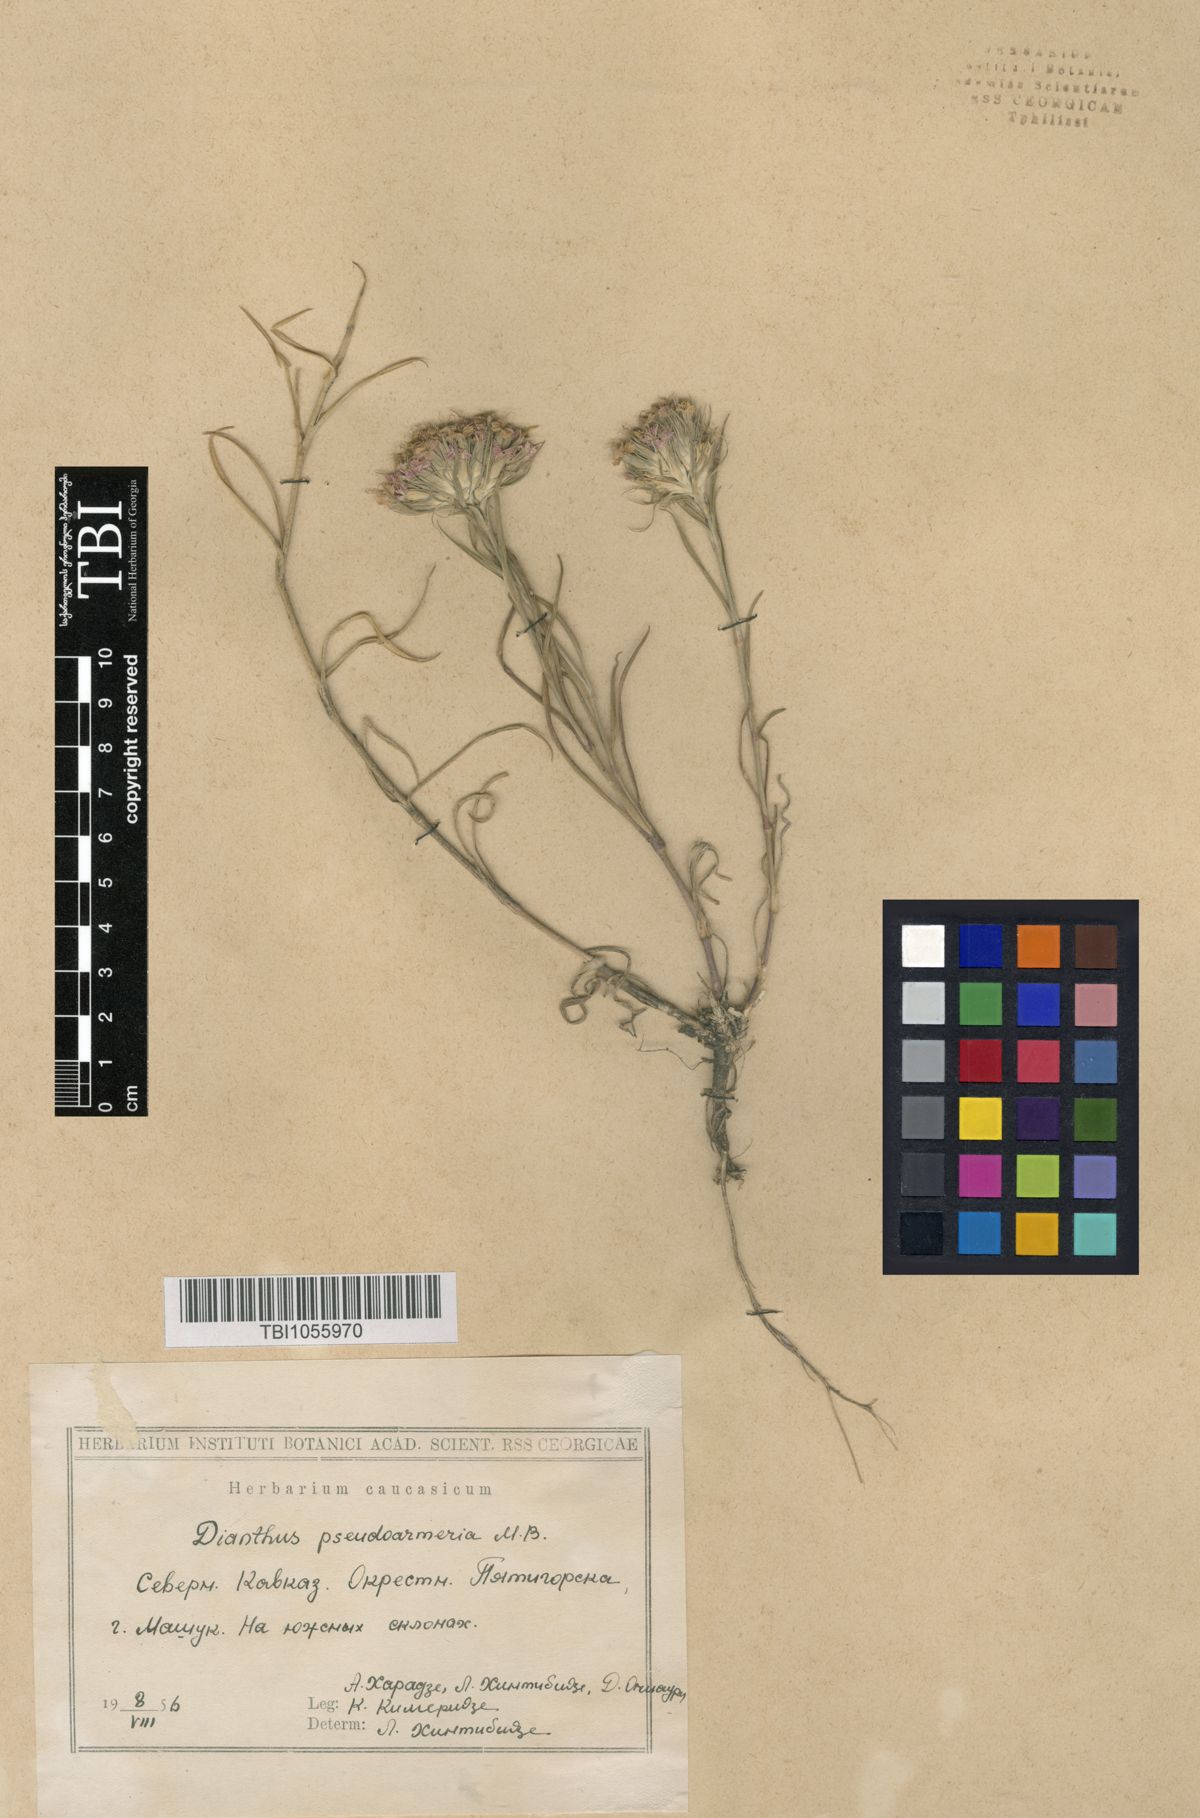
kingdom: Plantae
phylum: Tracheophyta
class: Magnoliopsida
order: Caryophyllales
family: Caryophyllaceae
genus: Dianthus
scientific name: Dianthus pseudarmeria
